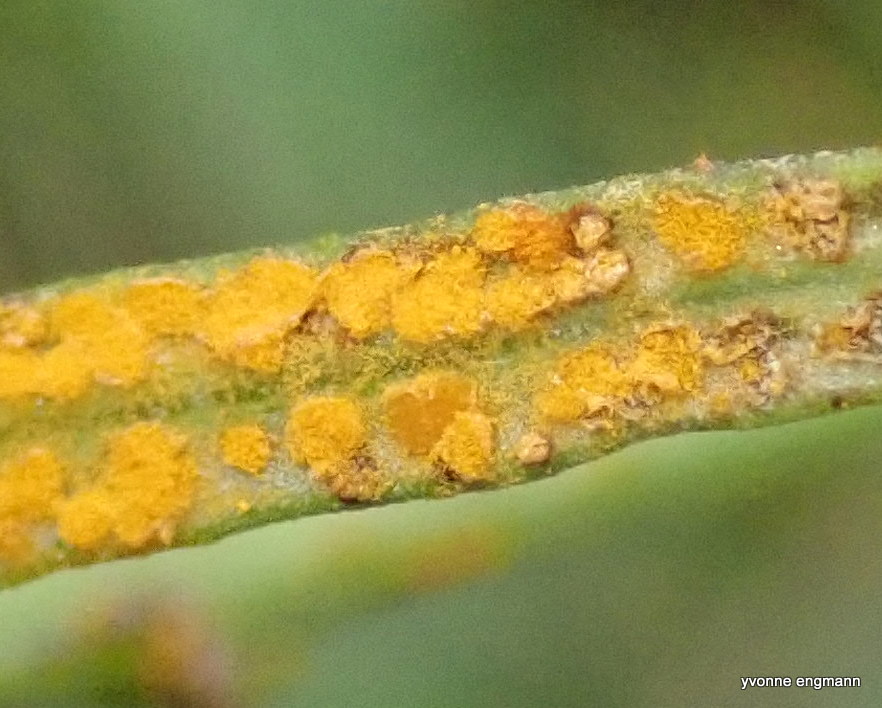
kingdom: Fungi
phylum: Basidiomycota
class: Pucciniomycetes
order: Pucciniales
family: Pucciniaceae
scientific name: Pucciniaceae
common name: rustsvampfamilien
